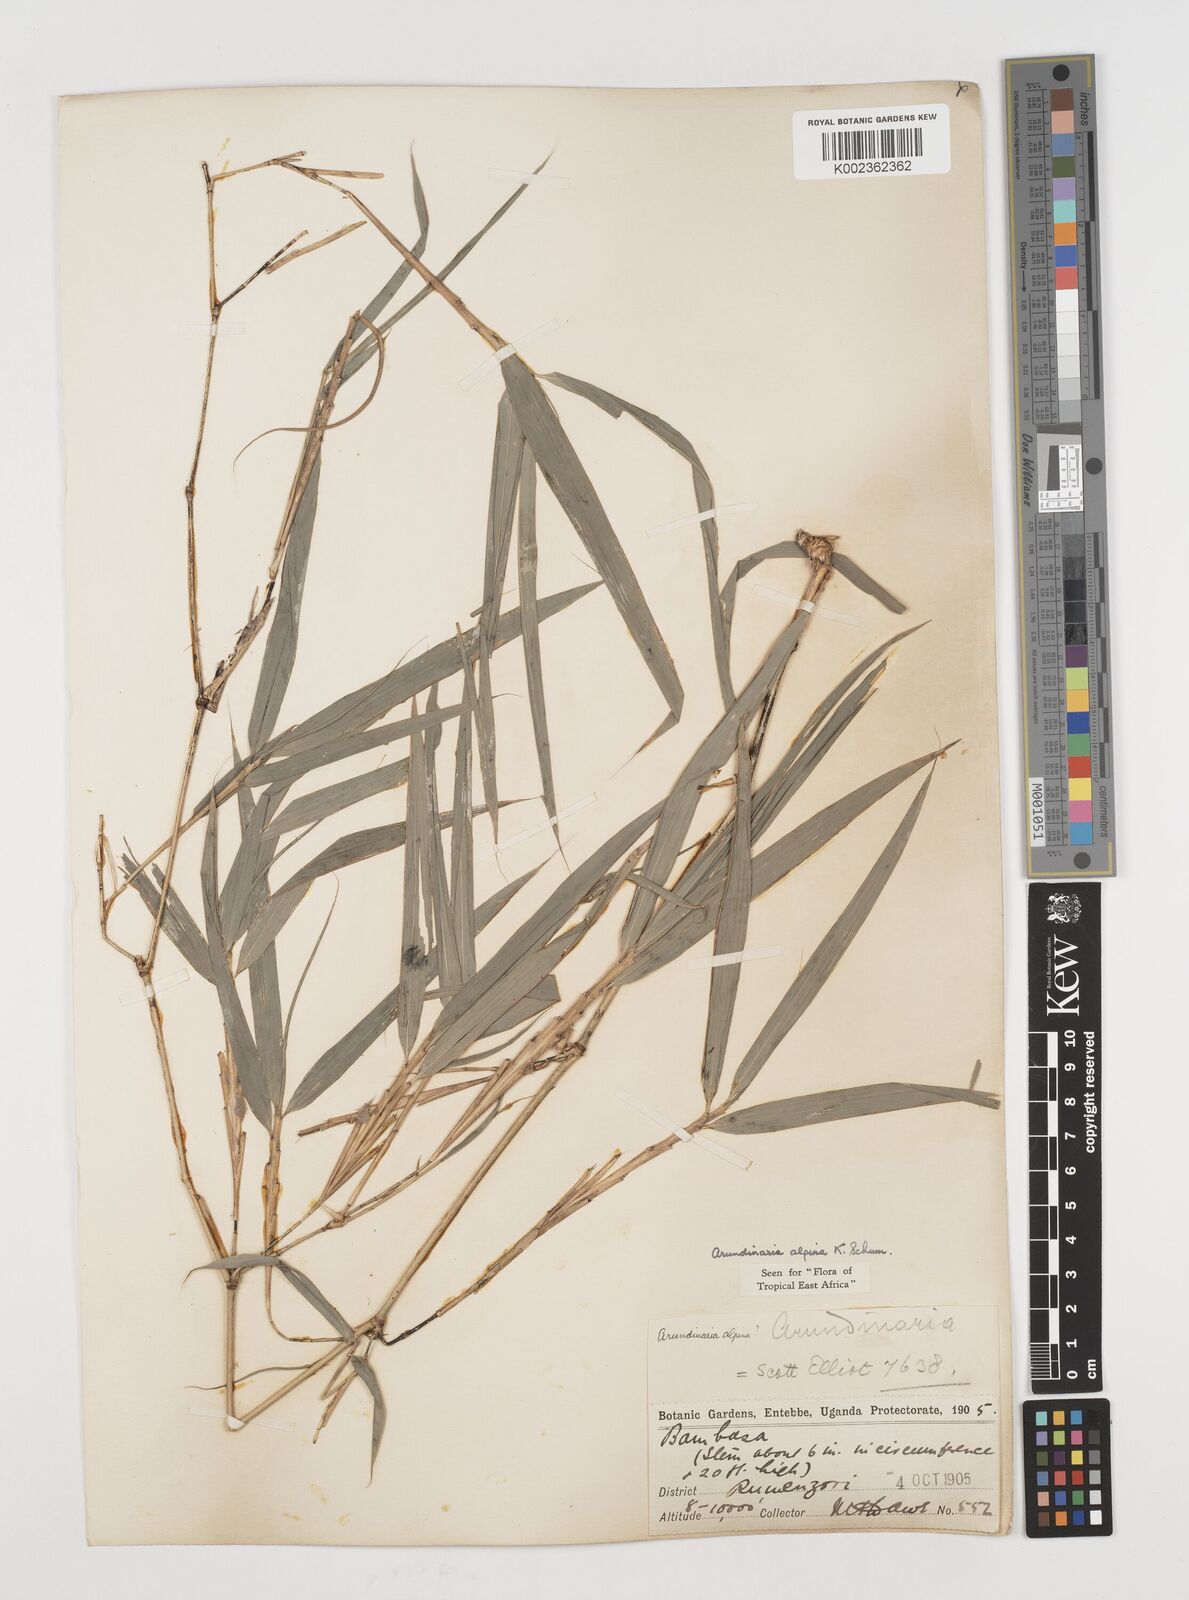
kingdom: Plantae
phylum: Tracheophyta
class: Liliopsida
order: Poales
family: Poaceae
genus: Oldeania
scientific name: Oldeania alpina
